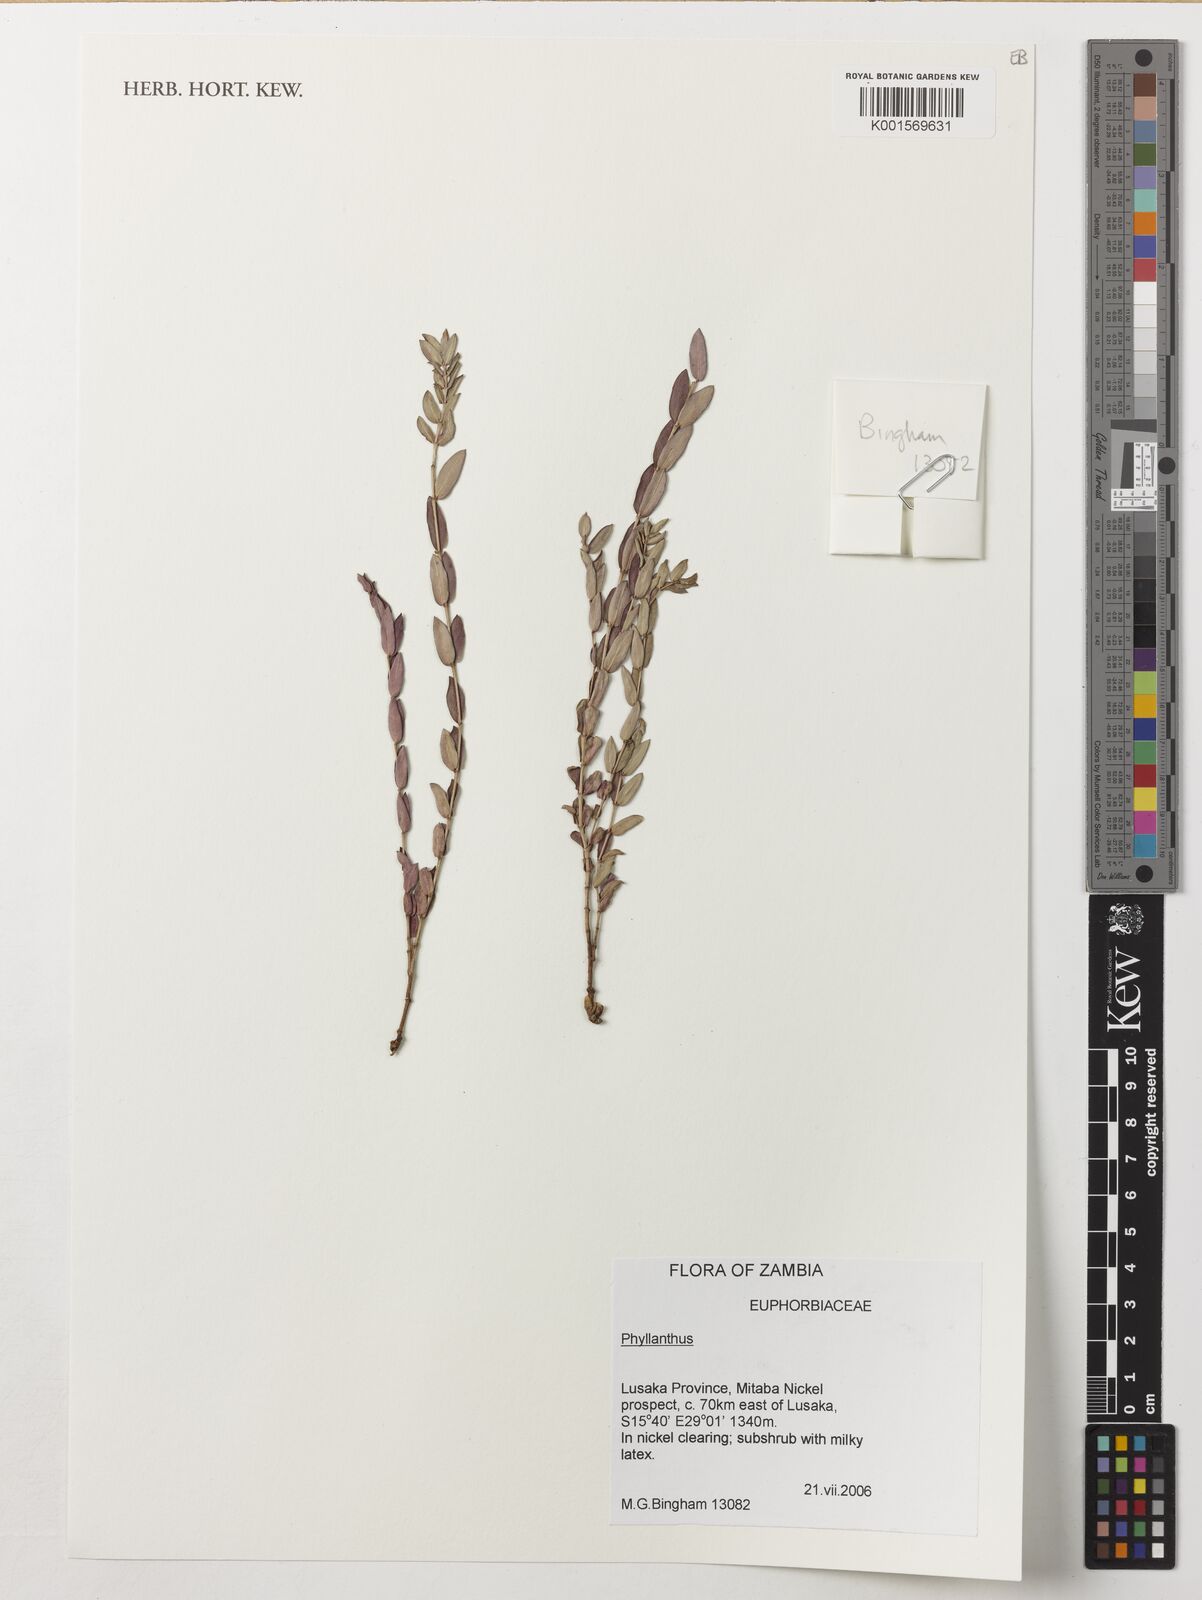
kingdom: Plantae
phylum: Tracheophyta
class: Magnoliopsida
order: Malpighiales
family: Phyllanthaceae
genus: Phyllanthus
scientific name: Phyllanthus
